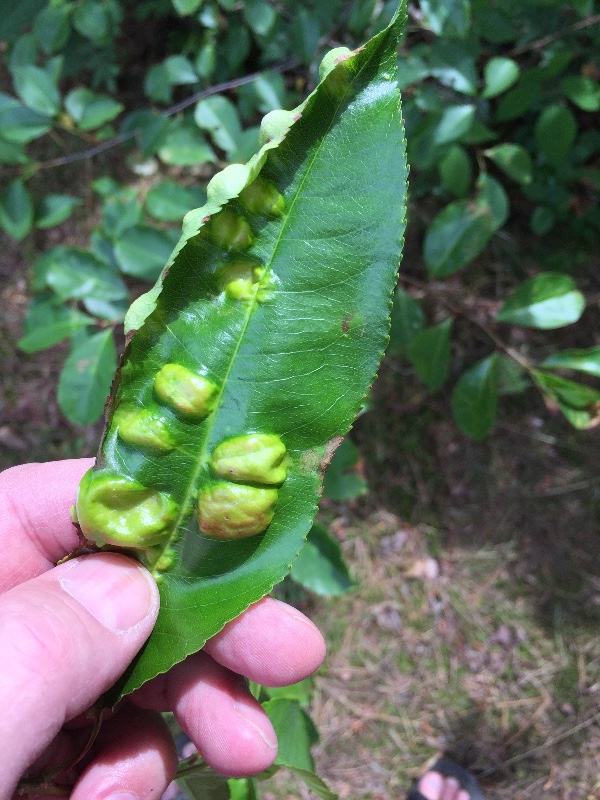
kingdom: Fungi
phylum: Ascomycota
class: Taphrinomycetes
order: Taphrinales
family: Taphrinaceae
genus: Taphrina
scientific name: Taphrina farlowii
